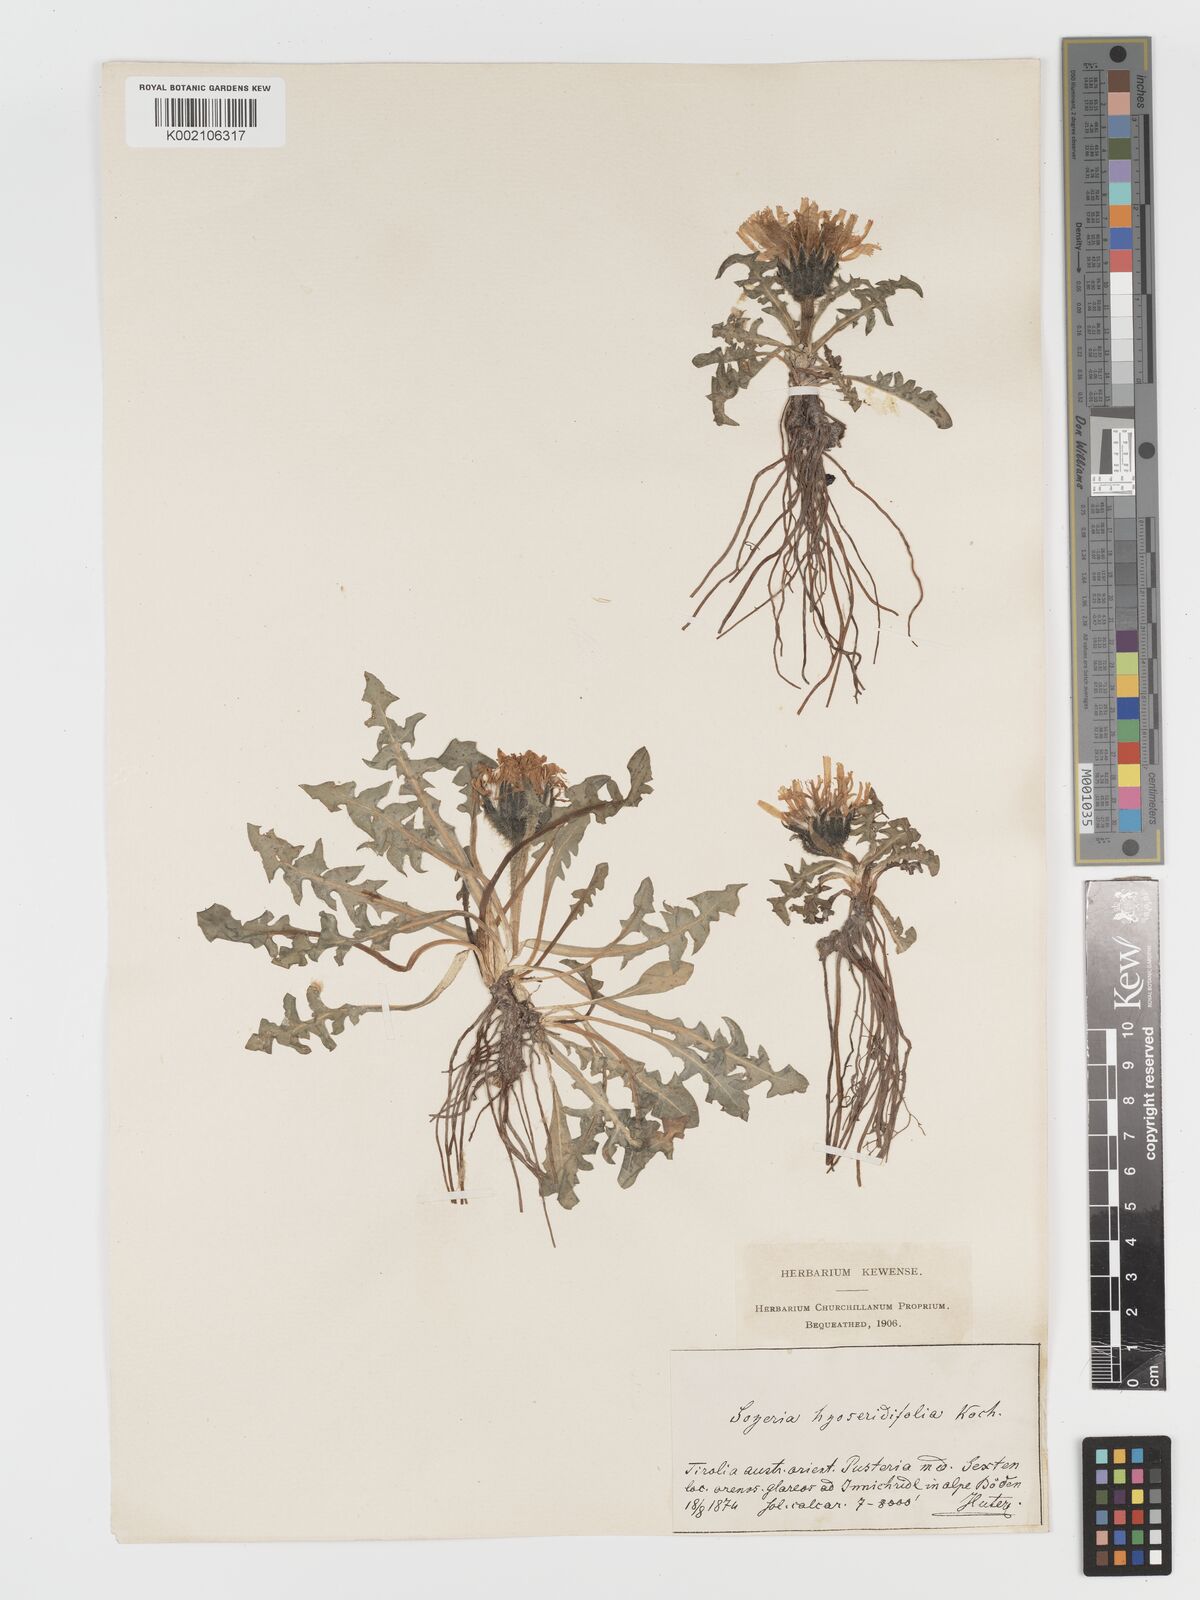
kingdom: Plantae
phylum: Tracheophyta
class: Magnoliopsida
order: Asterales
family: Asteraceae
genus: Crepis
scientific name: Crepis terglouensis
